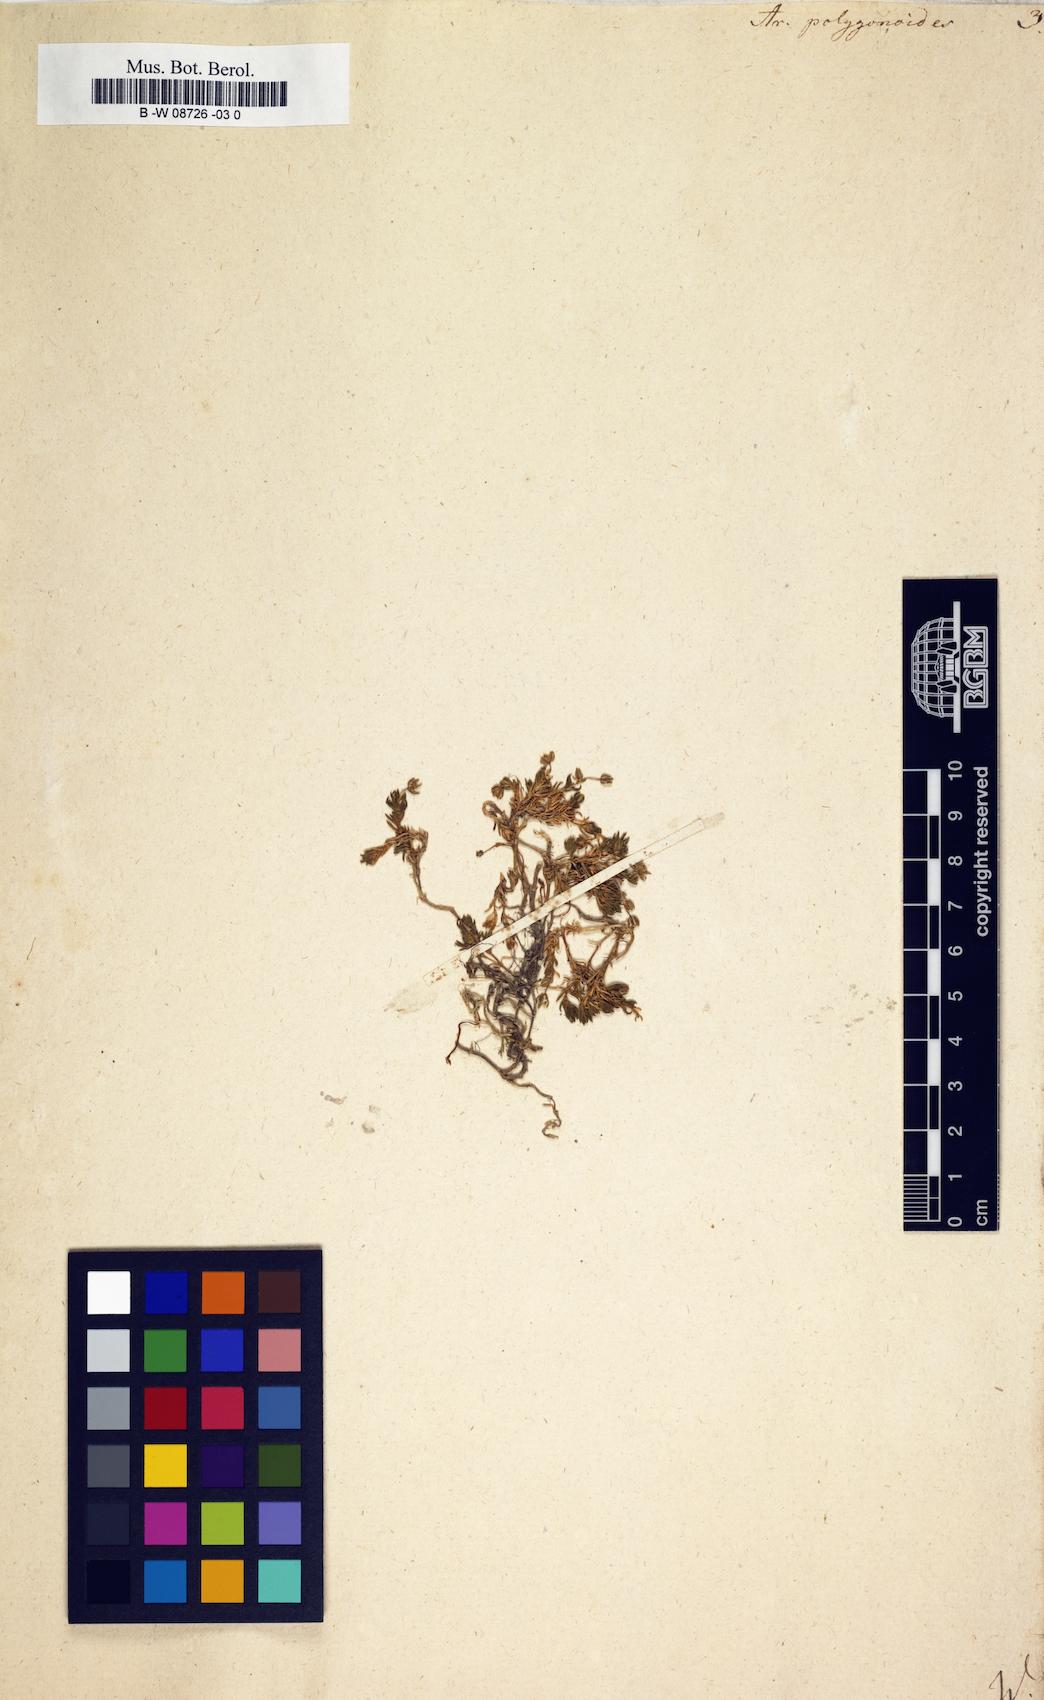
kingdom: Plantae
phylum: Tracheophyta
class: Magnoliopsida
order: Caryophyllales
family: Caryophyllaceae
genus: Moehringia
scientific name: Moehringia ciliata
